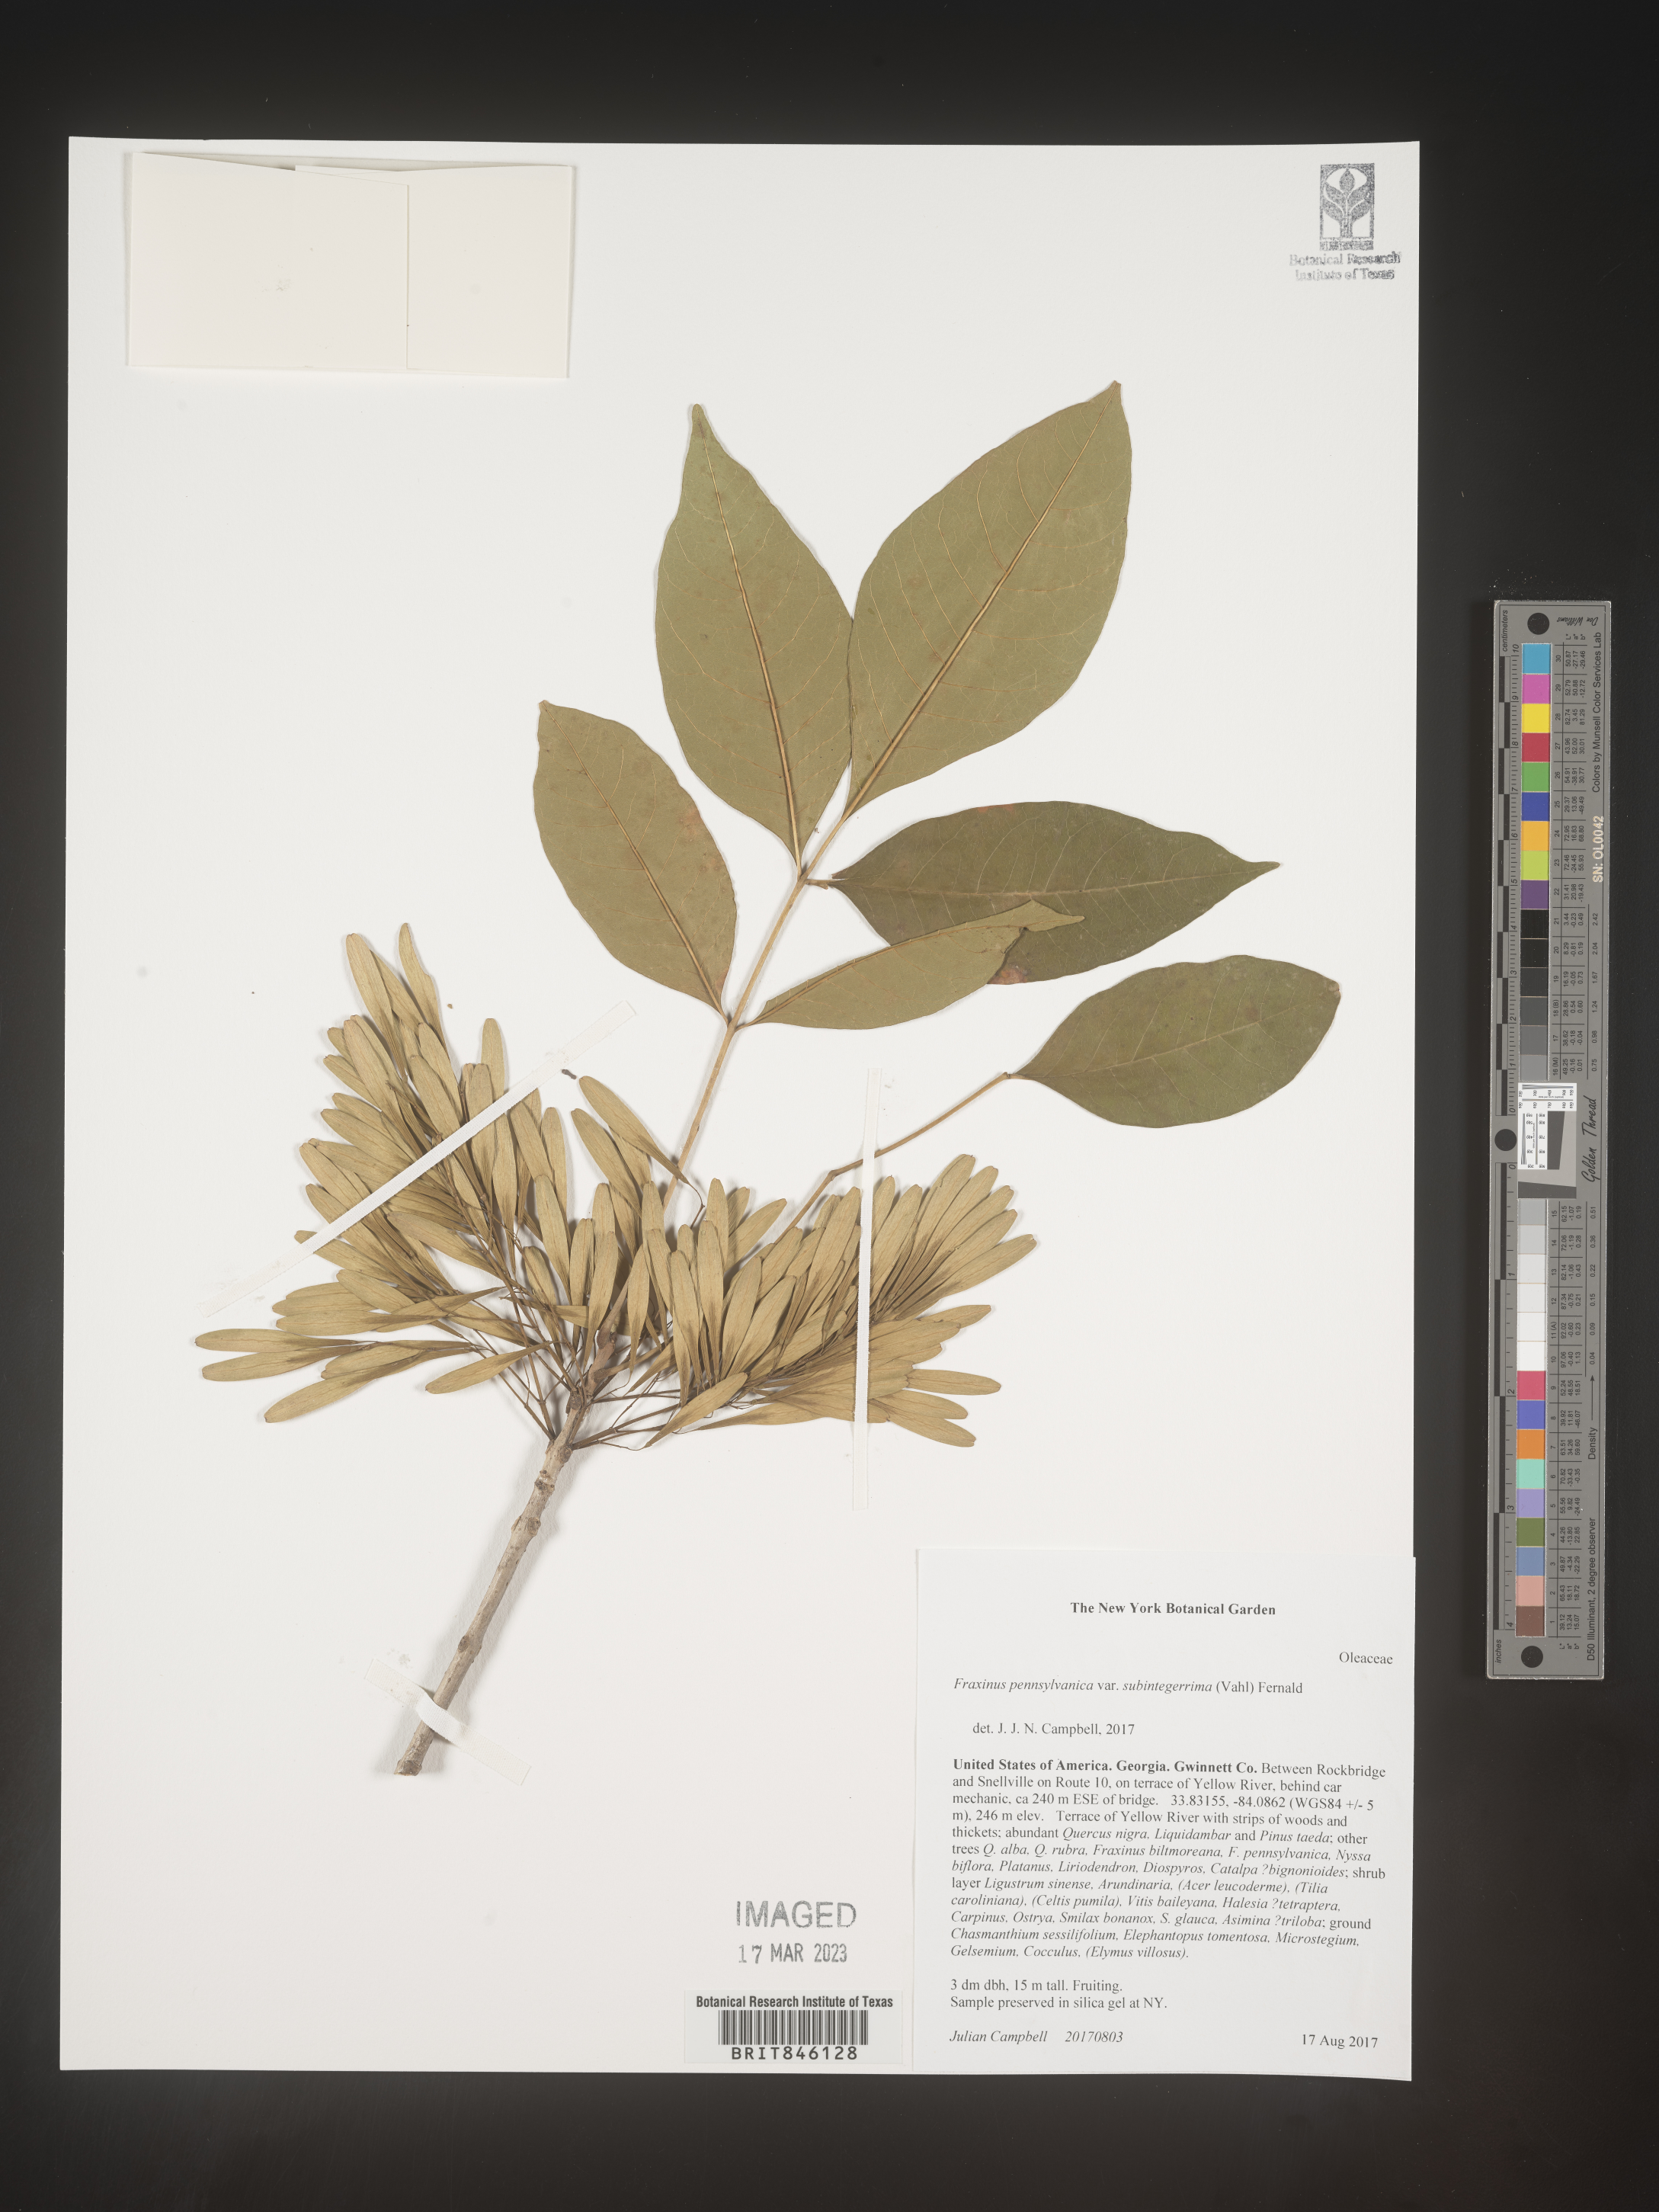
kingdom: Plantae
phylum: Tracheophyta
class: Magnoliopsida
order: Lamiales
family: Oleaceae
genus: Fraxinus
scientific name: Fraxinus pennsylvanica
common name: Green ash
